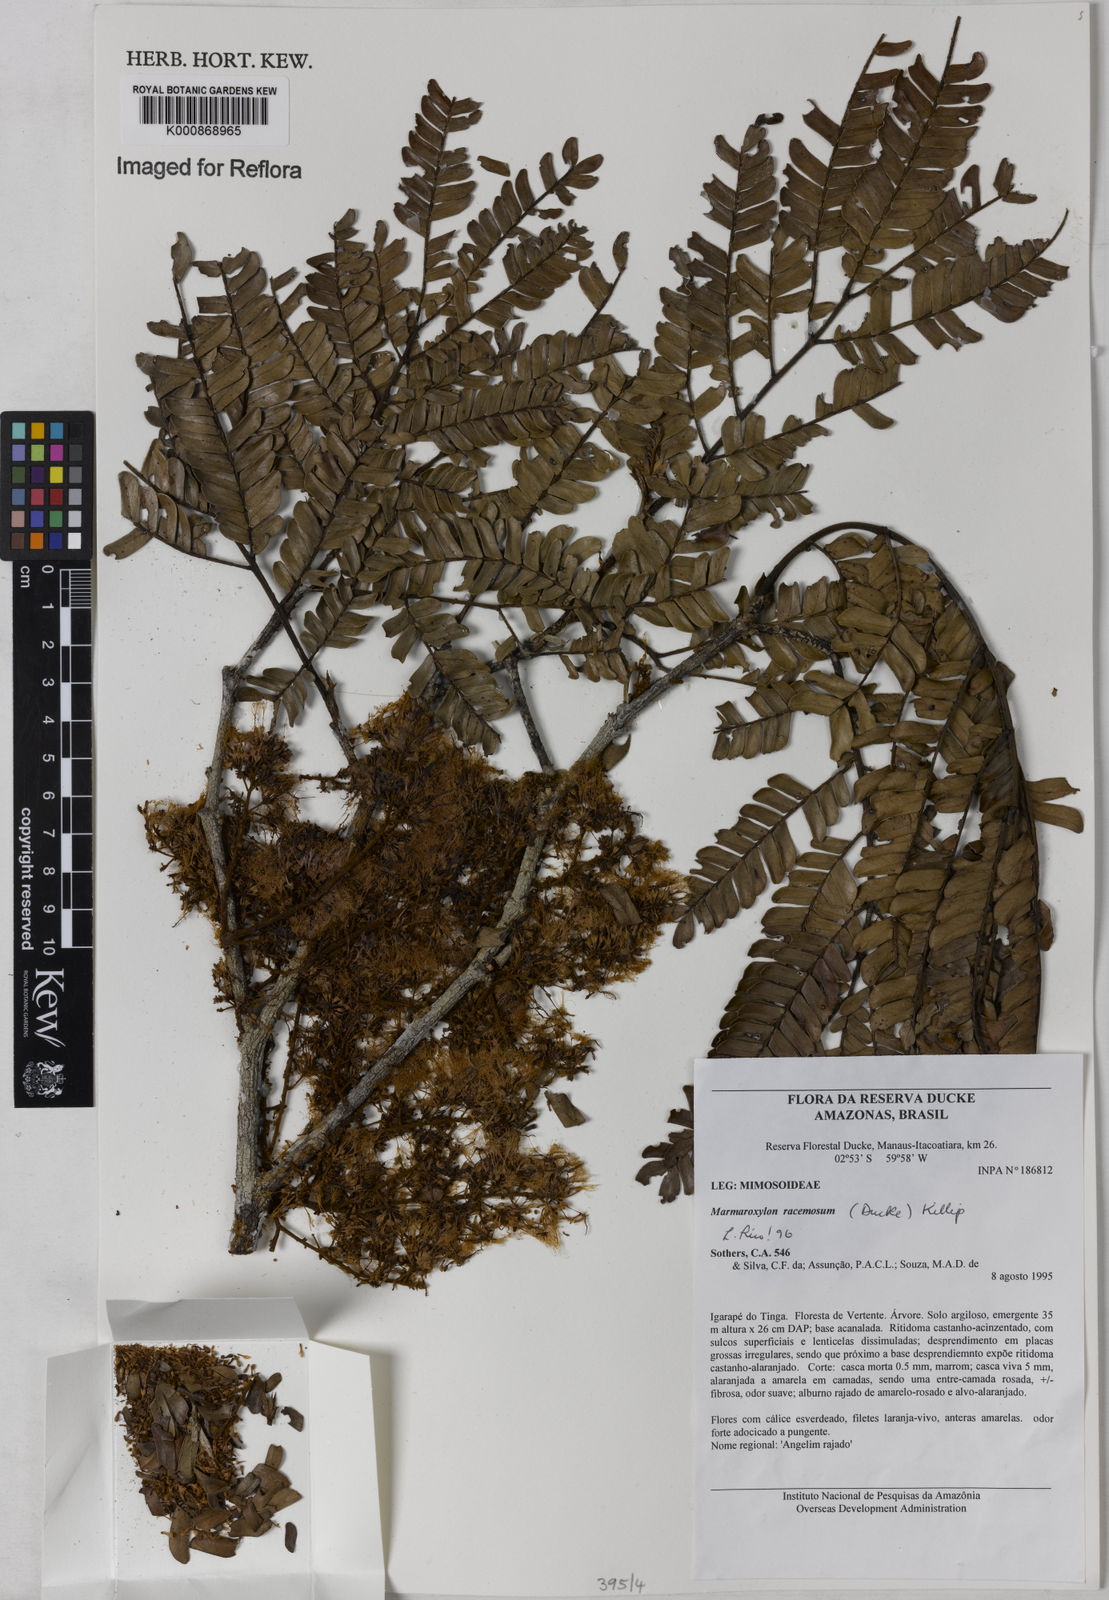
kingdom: Plantae
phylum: Tracheophyta
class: Magnoliopsida
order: Fabales
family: Fabaceae
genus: Zygia
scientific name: Zygia racemosa
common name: Marblewood
